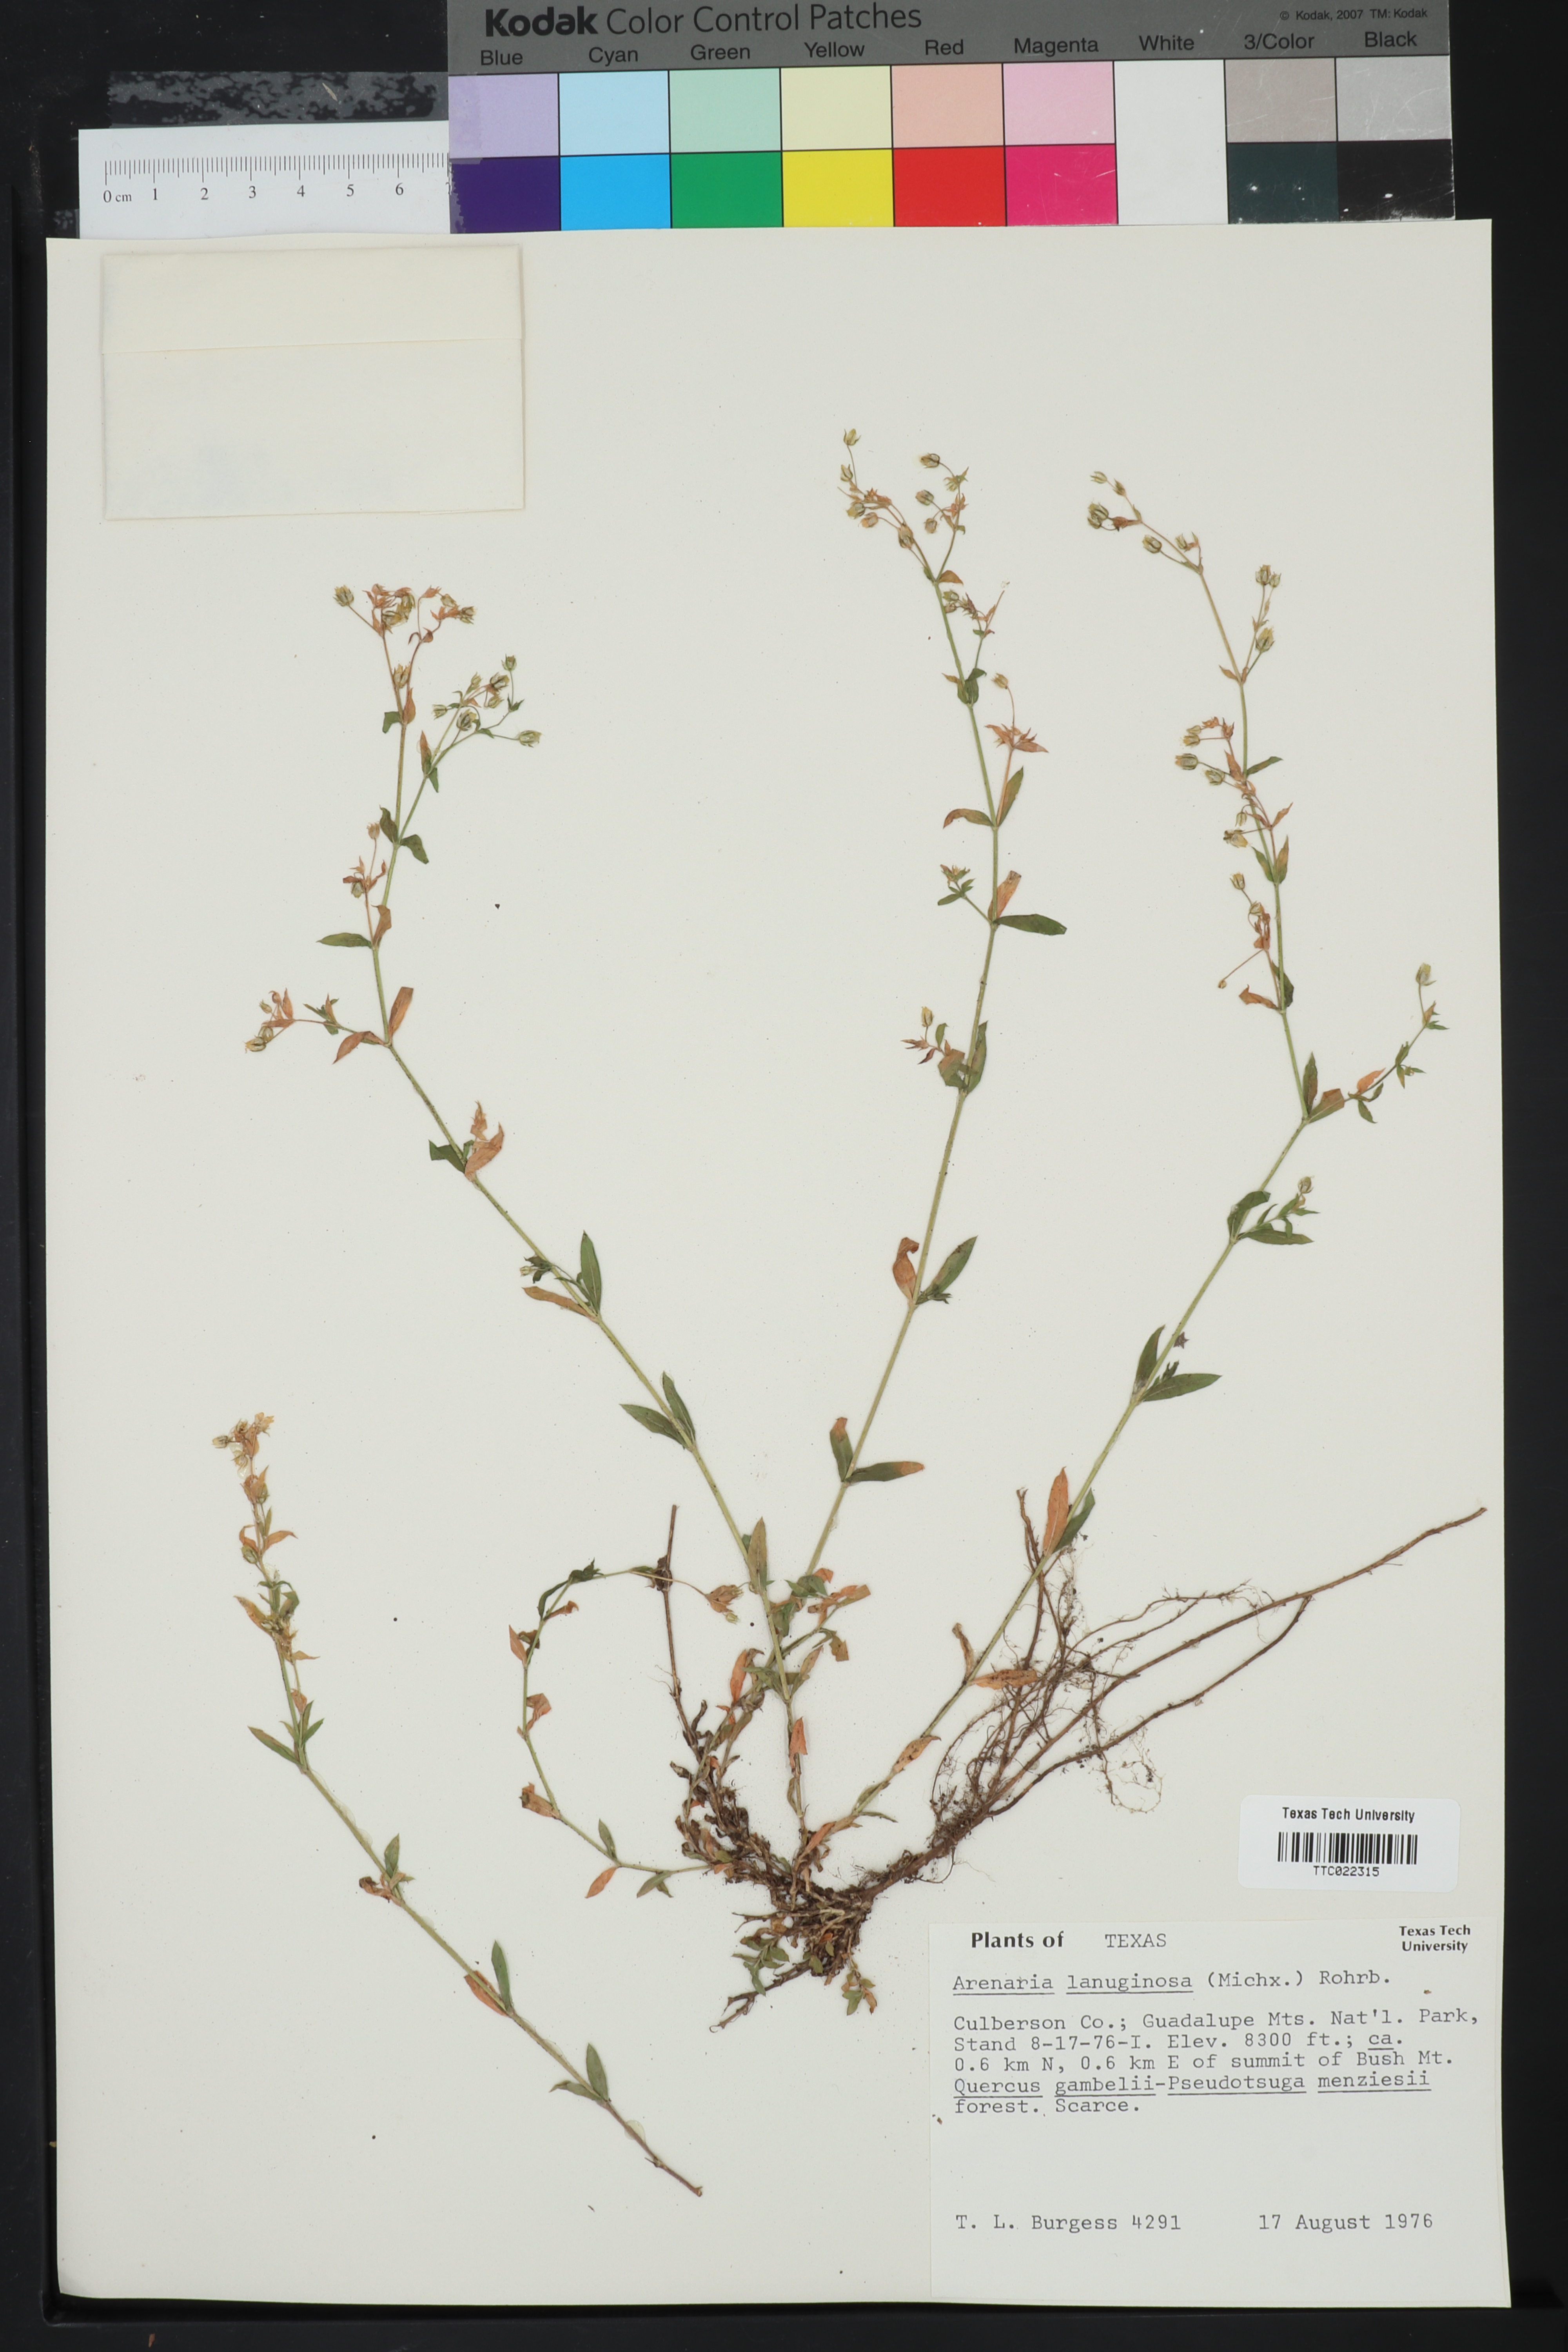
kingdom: Plantae
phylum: Tracheophyta
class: Magnoliopsida
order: Caryophyllales
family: Caryophyllaceae
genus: Arenaria
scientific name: Arenaria lanuginosa
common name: Spread sandwort
